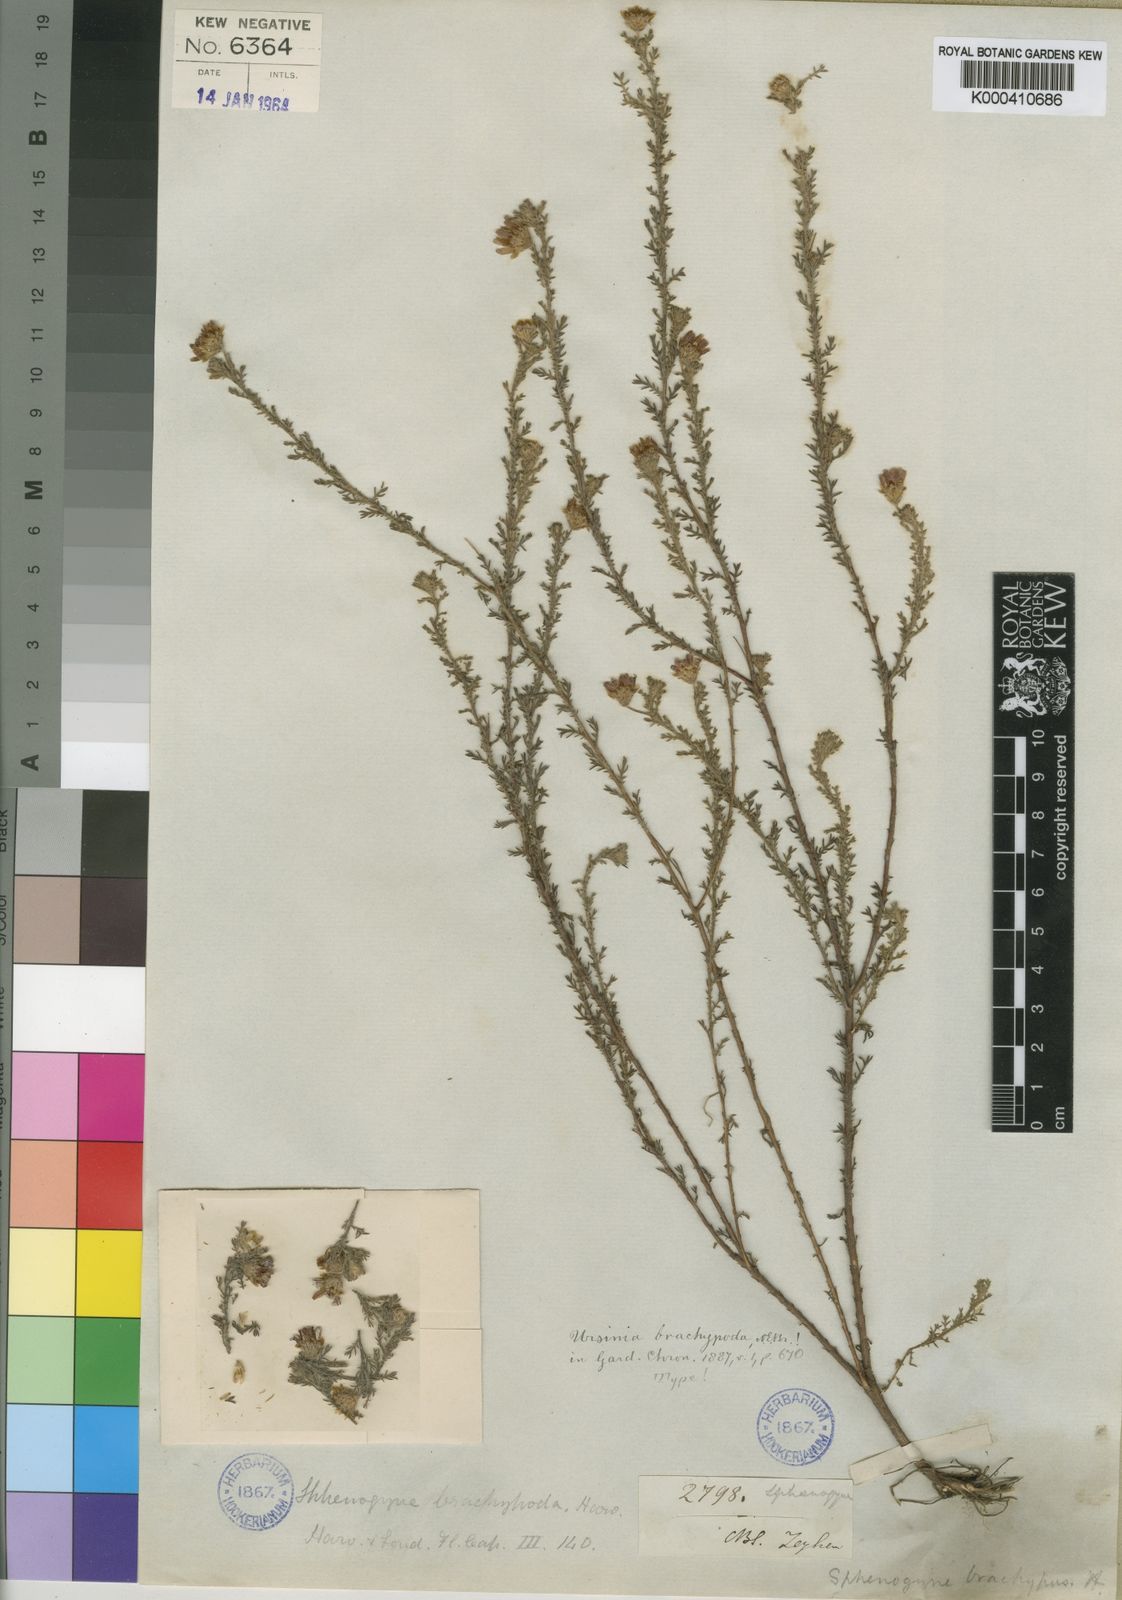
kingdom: Plantae
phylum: Tracheophyta
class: Magnoliopsida
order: Asterales
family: Asteraceae
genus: Ursinia
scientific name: Ursinia hispida
